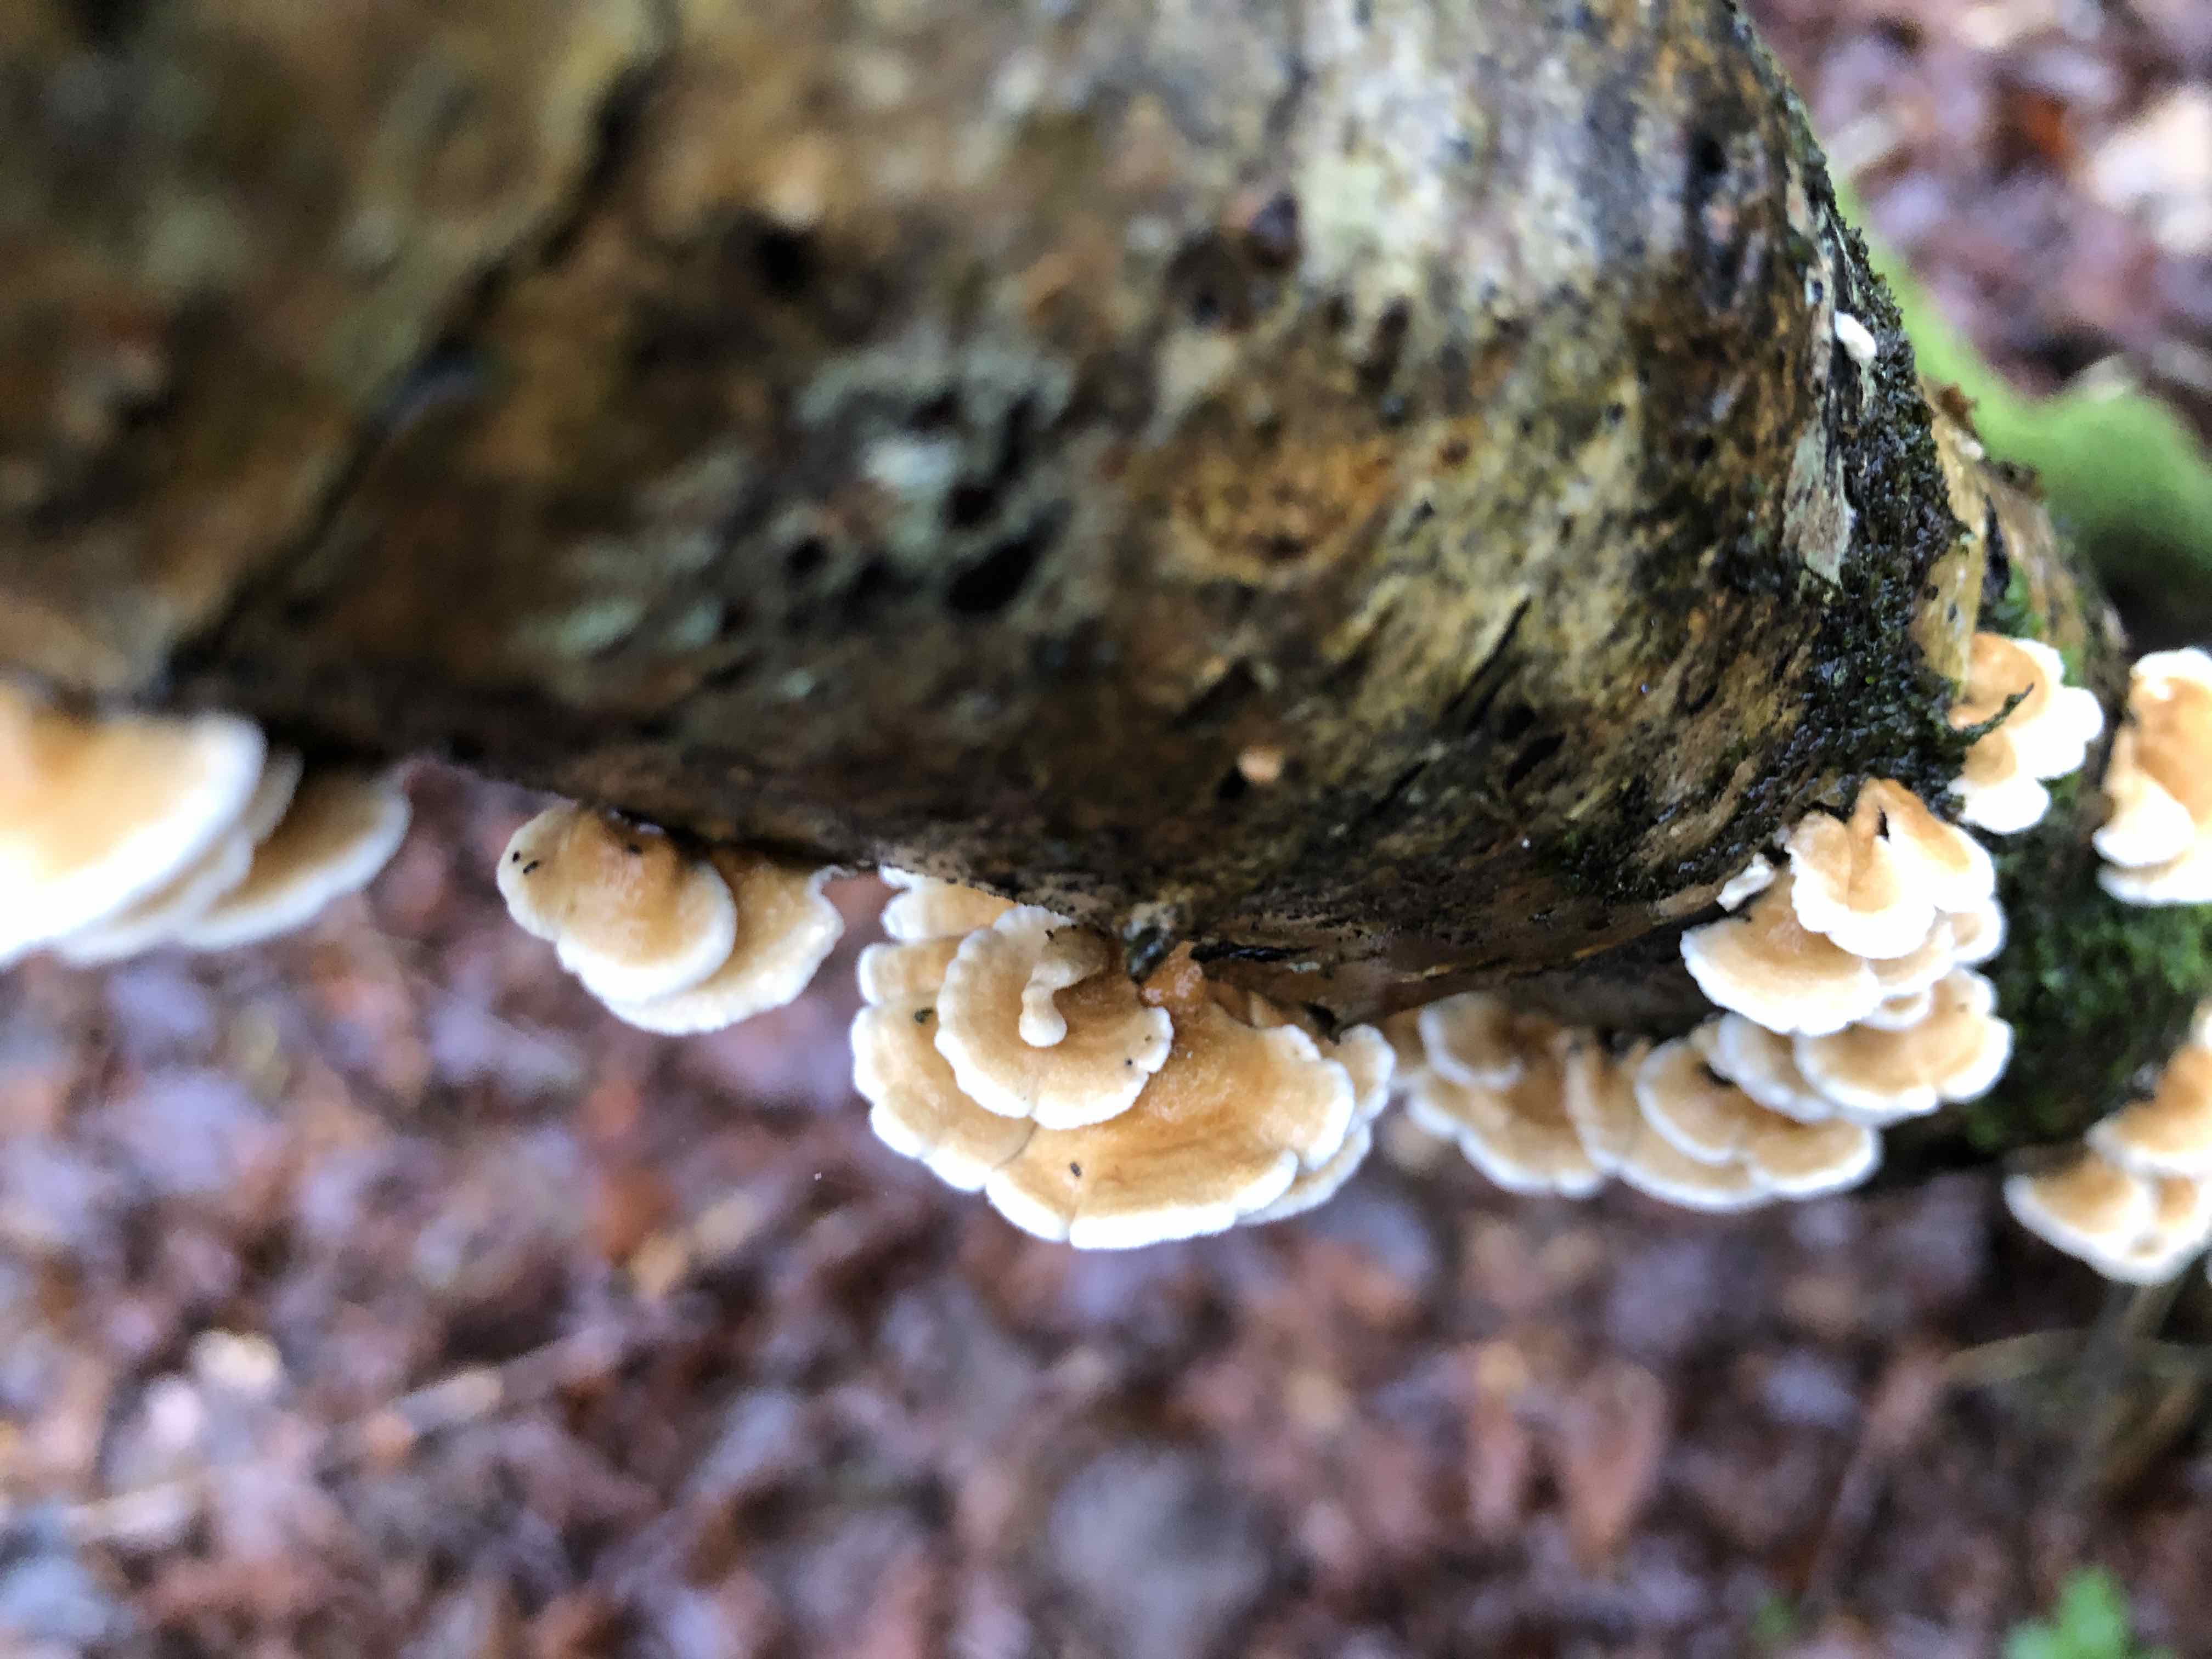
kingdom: Fungi
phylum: Basidiomycota
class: Agaricomycetes
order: Amylocorticiales
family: Amylocorticiaceae
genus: Plicaturopsis
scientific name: Plicaturopsis crispa
